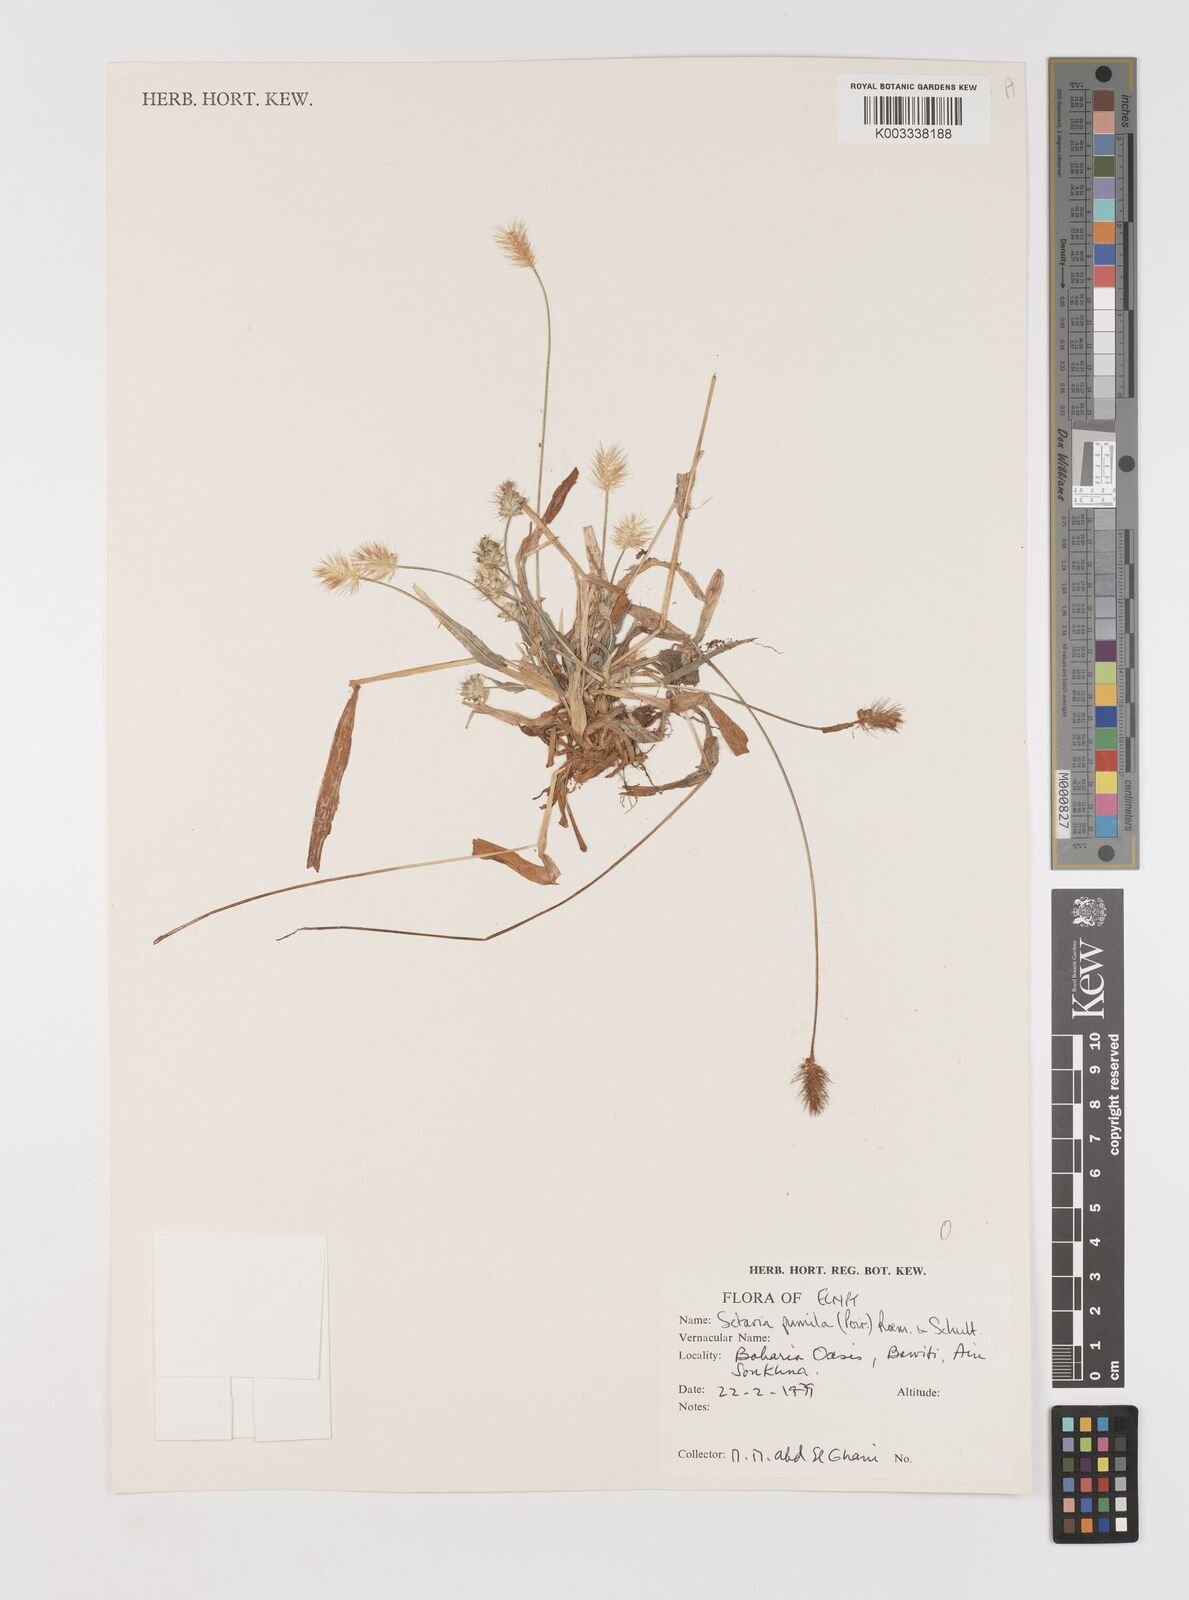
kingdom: Plantae
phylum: Tracheophyta
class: Liliopsida
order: Poales
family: Poaceae
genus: Setaria
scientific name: Setaria pumila
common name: Yellow bristle-grass
